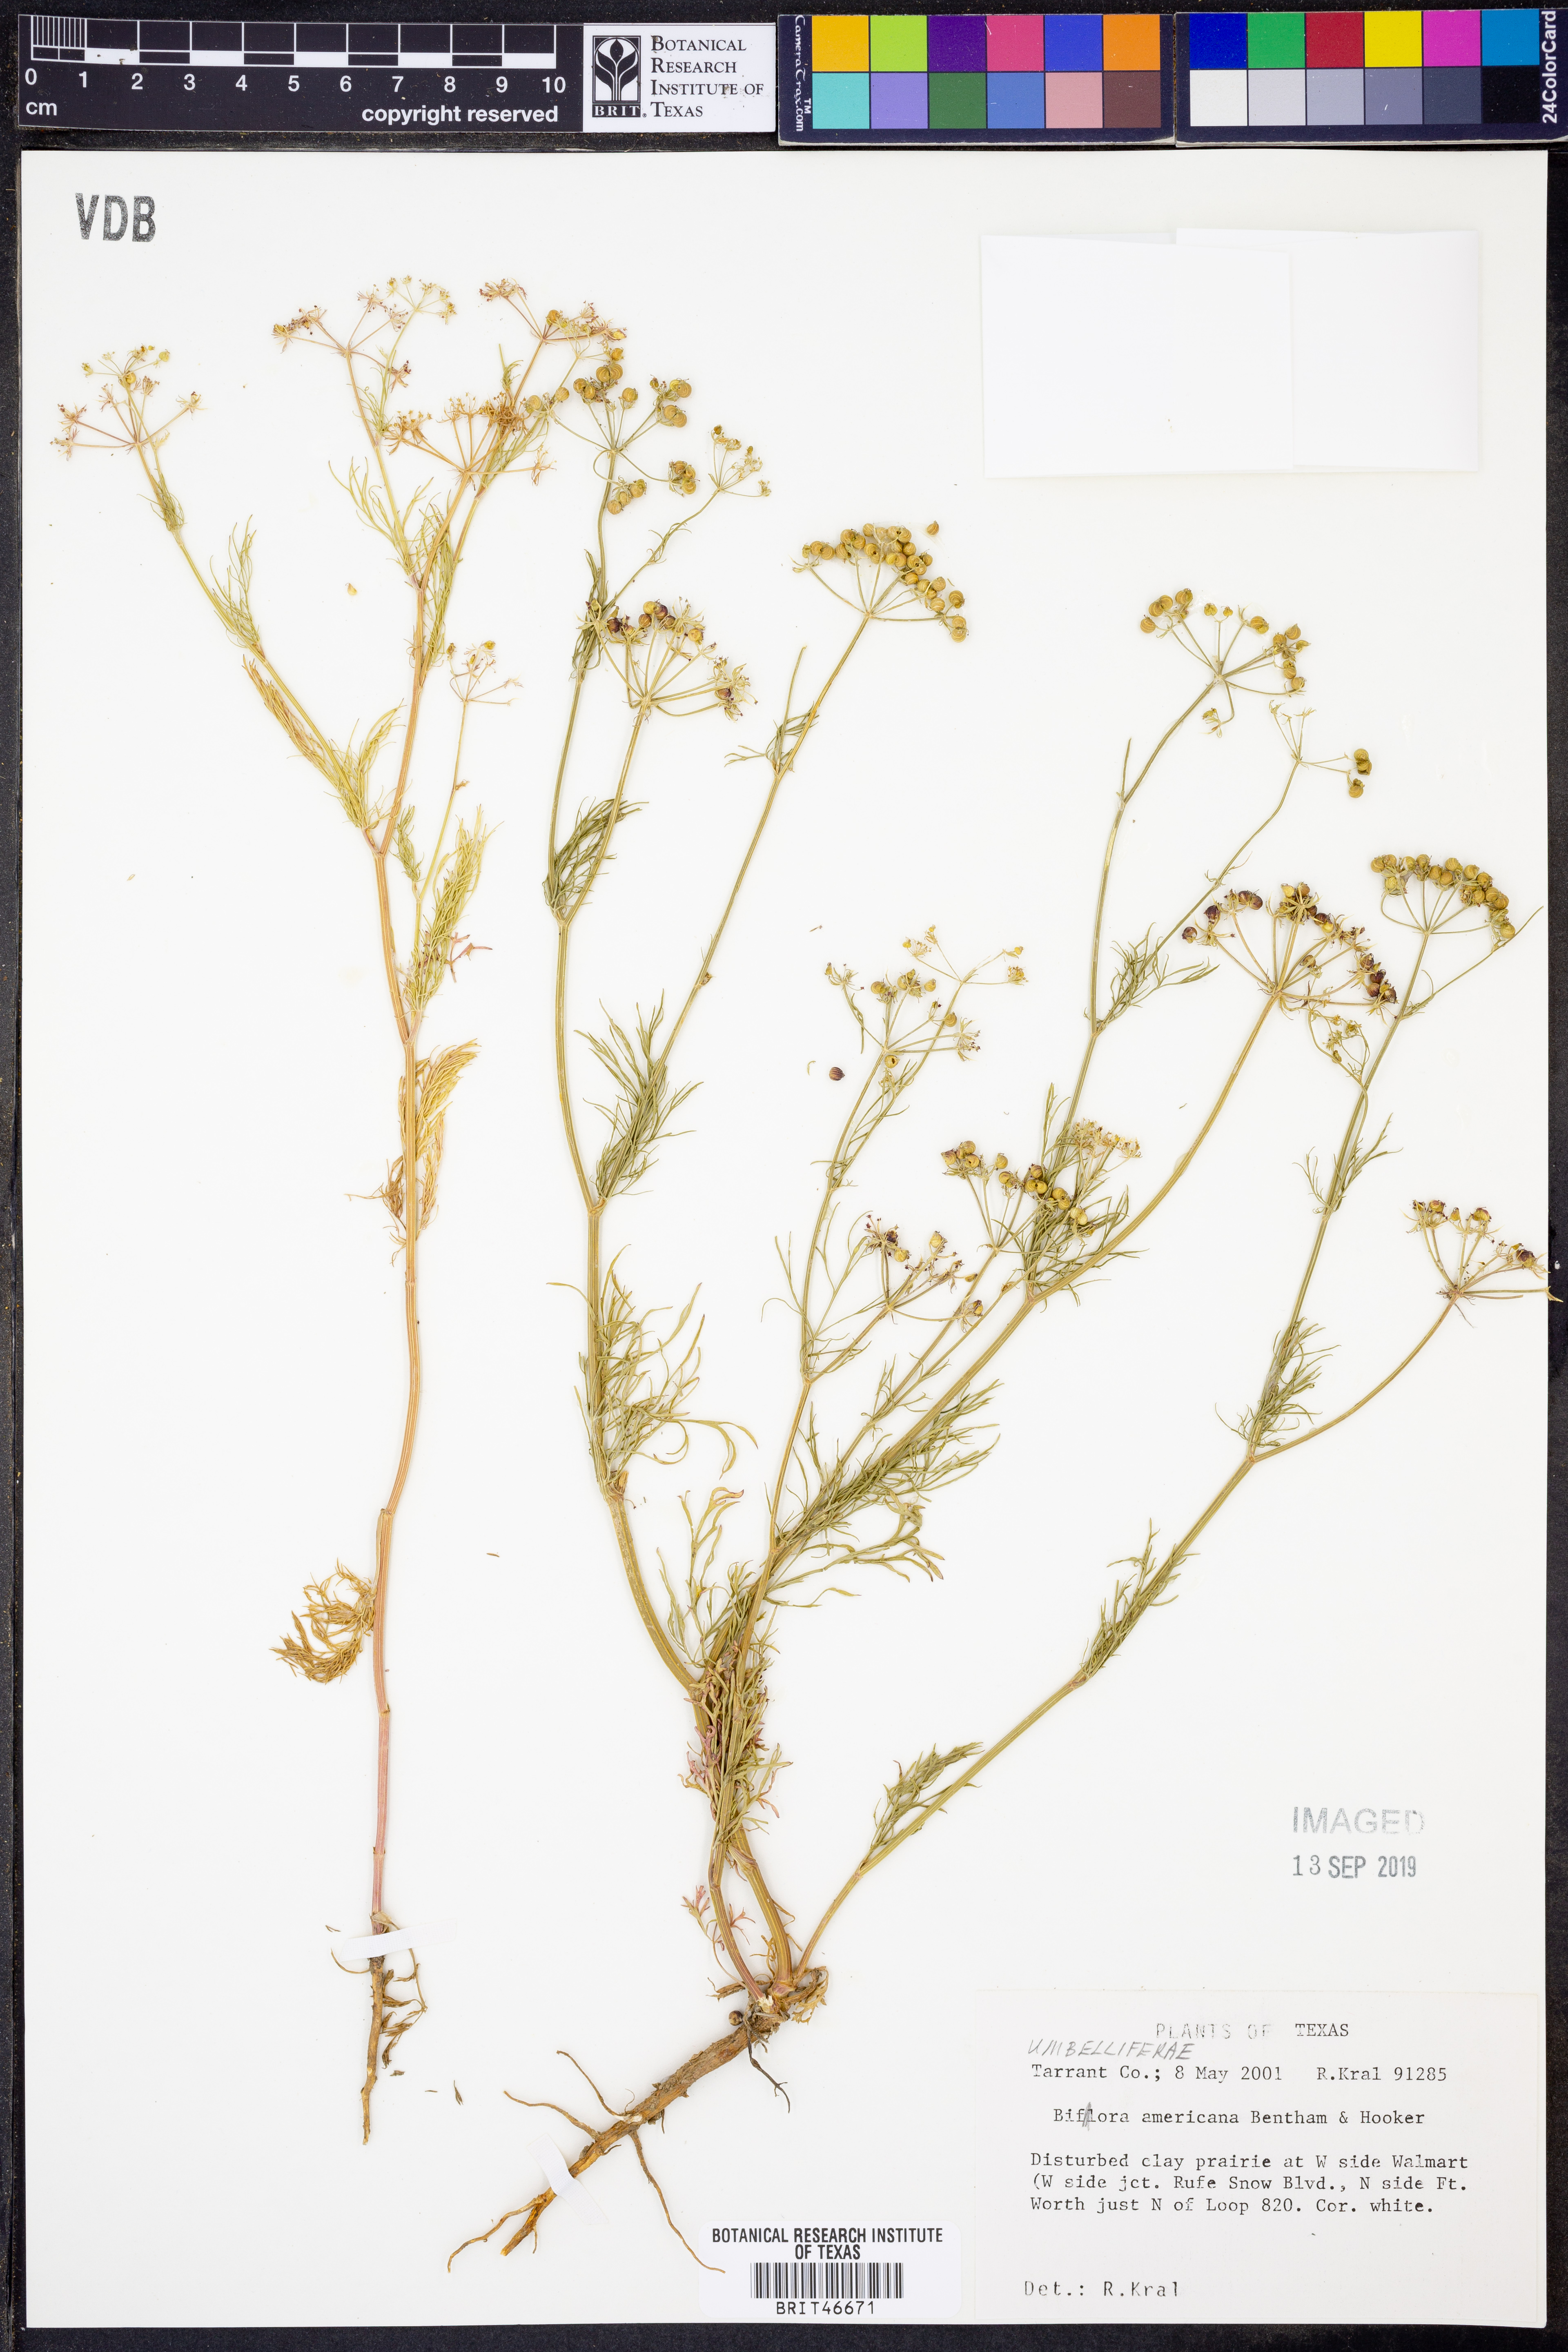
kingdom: Plantae
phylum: Tracheophyta
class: Magnoliopsida
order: Apiales
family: Apiaceae
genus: Atrema
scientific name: Atrema americanum
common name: Prairie-bishop
